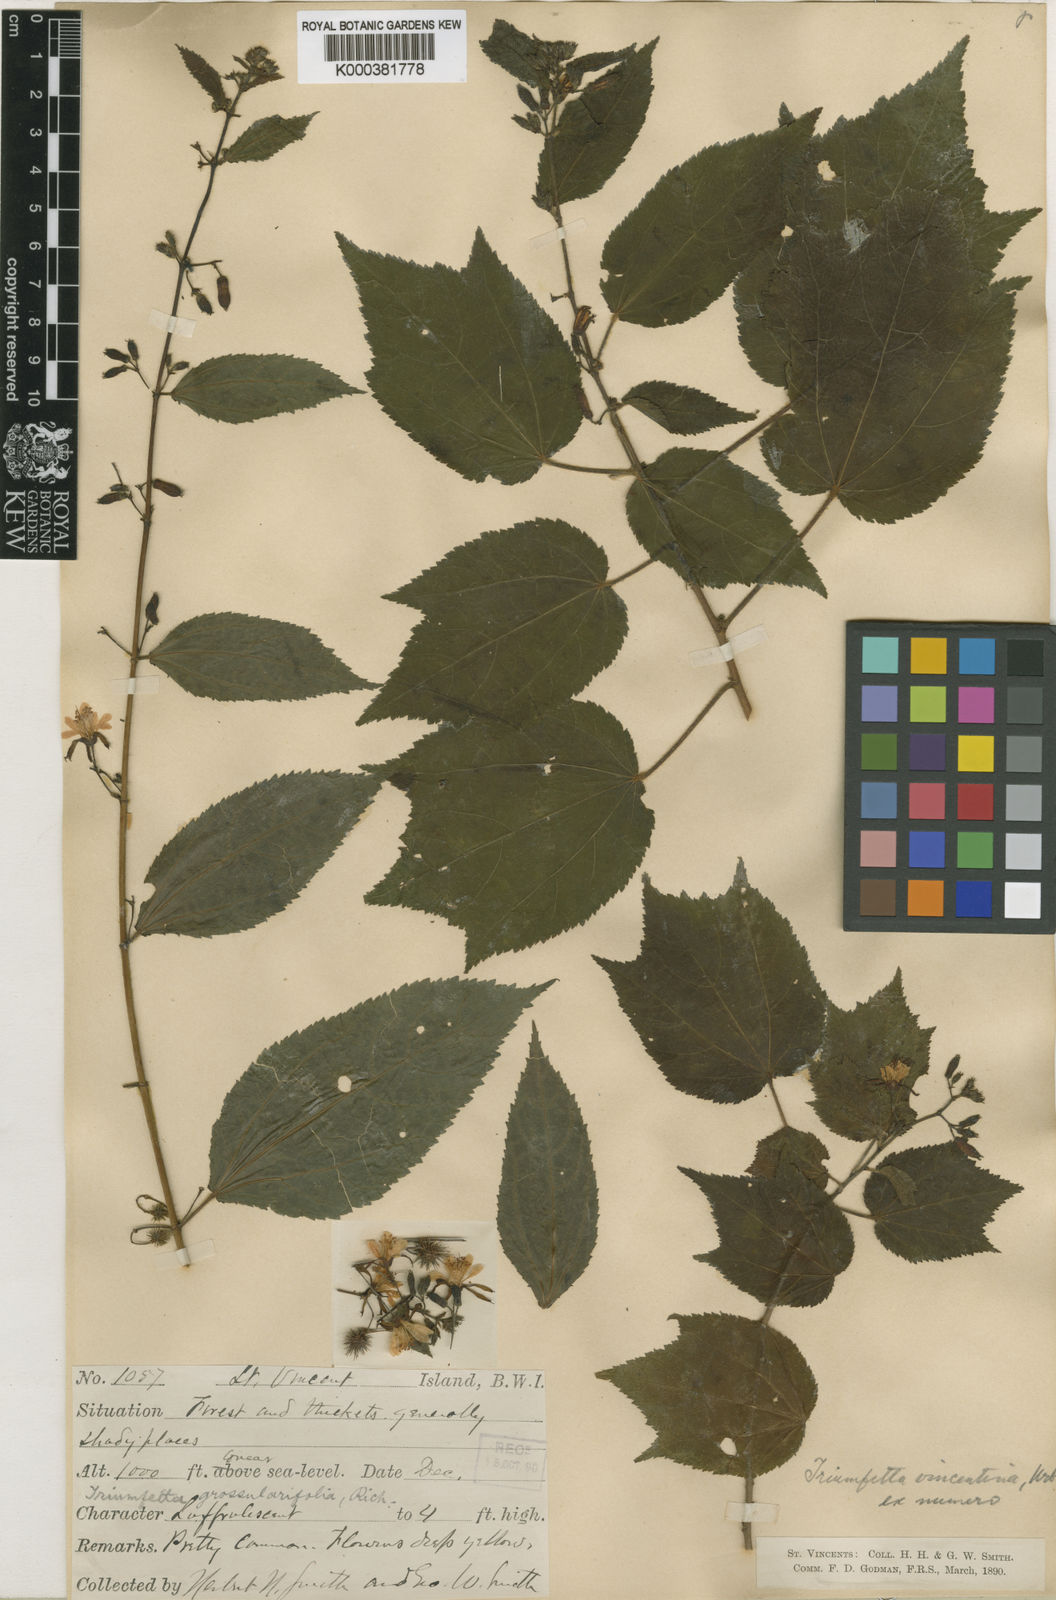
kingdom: Plantae
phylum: Tracheophyta
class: Magnoliopsida
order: Malvales
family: Malvaceae
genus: Triumfetta
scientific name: Triumfetta bogotensis
